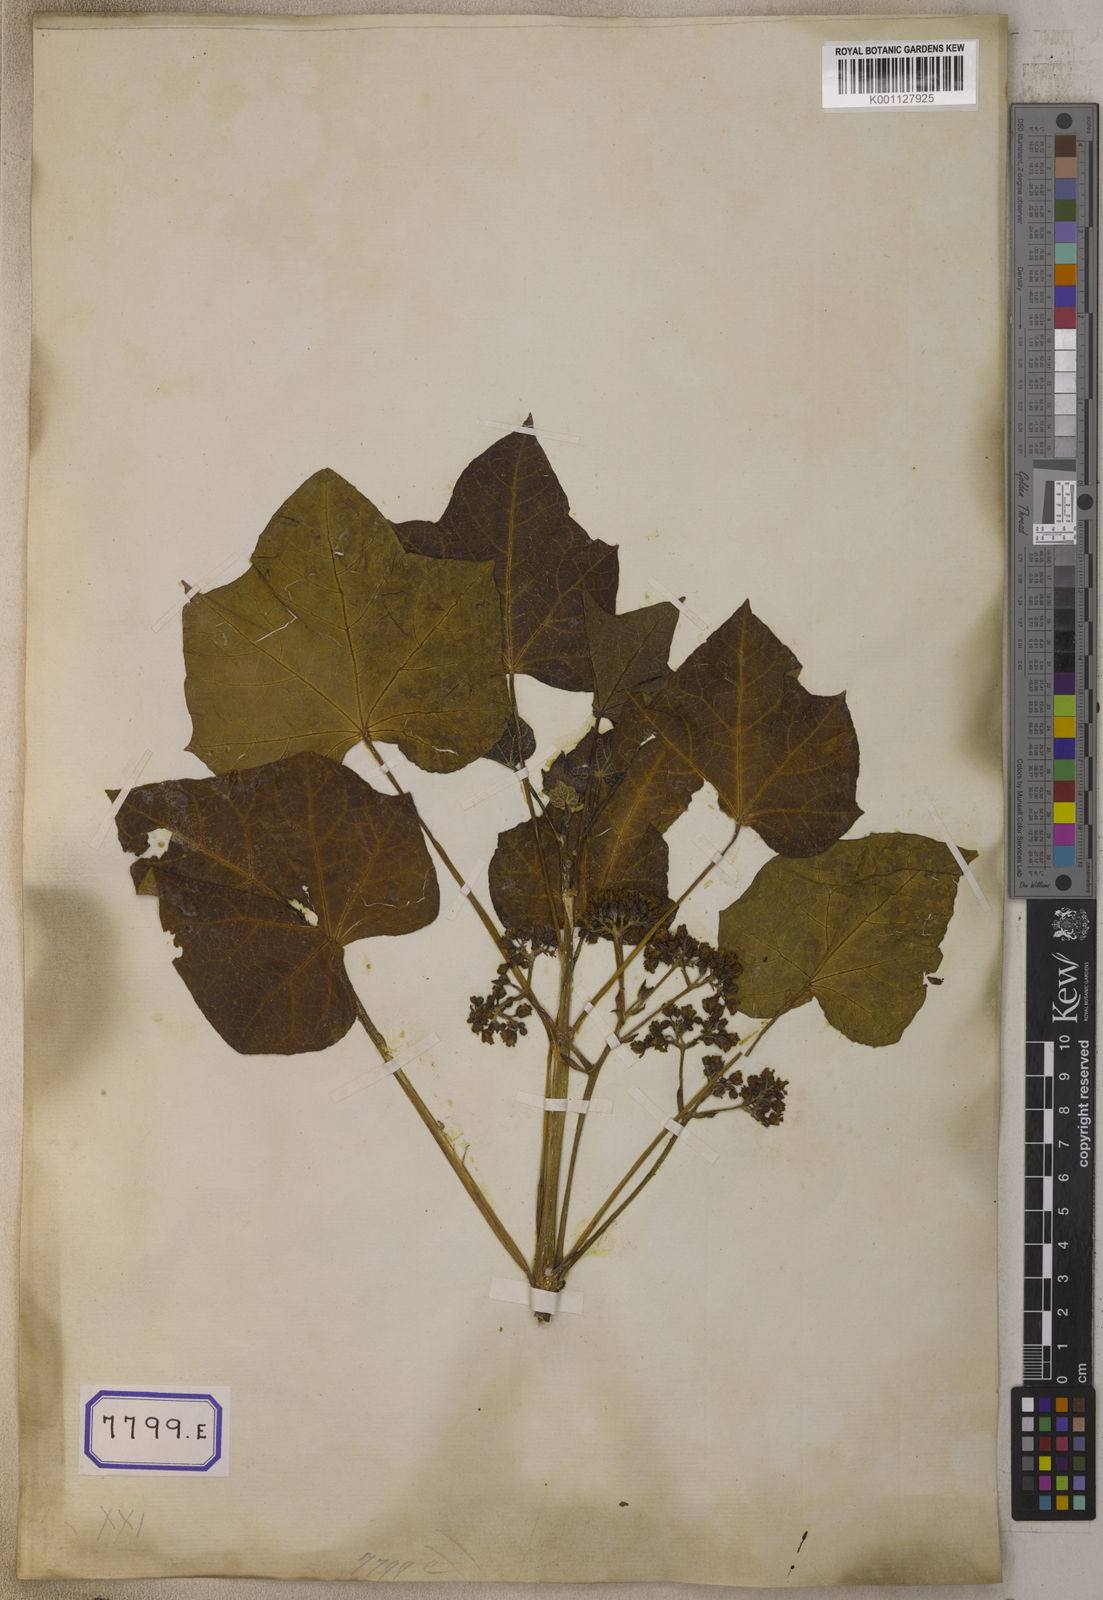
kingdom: Plantae
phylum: Tracheophyta
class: Magnoliopsida
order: Malpighiales
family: Euphorbiaceae
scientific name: Euphorbiaceae
